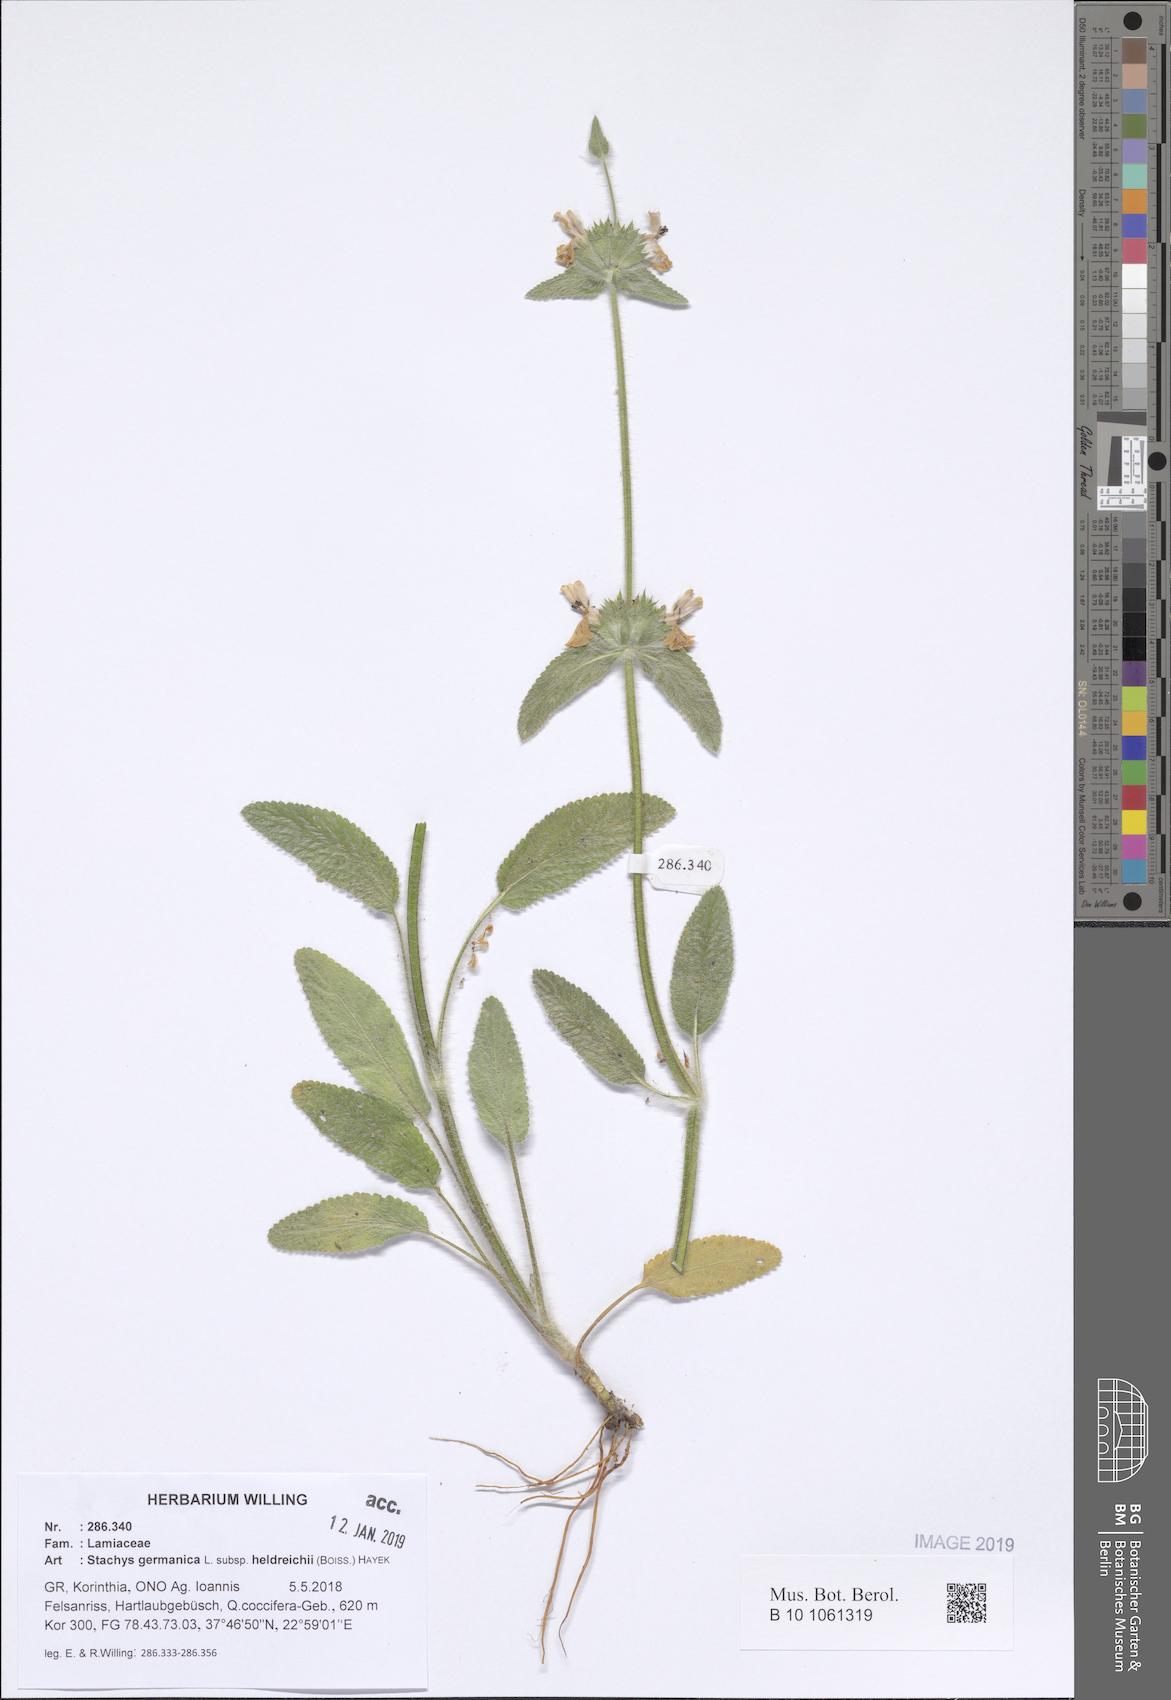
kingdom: Plantae
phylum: Tracheophyta
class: Magnoliopsida
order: Lamiales
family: Lamiaceae
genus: Stachys
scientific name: Stachys germanica
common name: Downy woundwort
